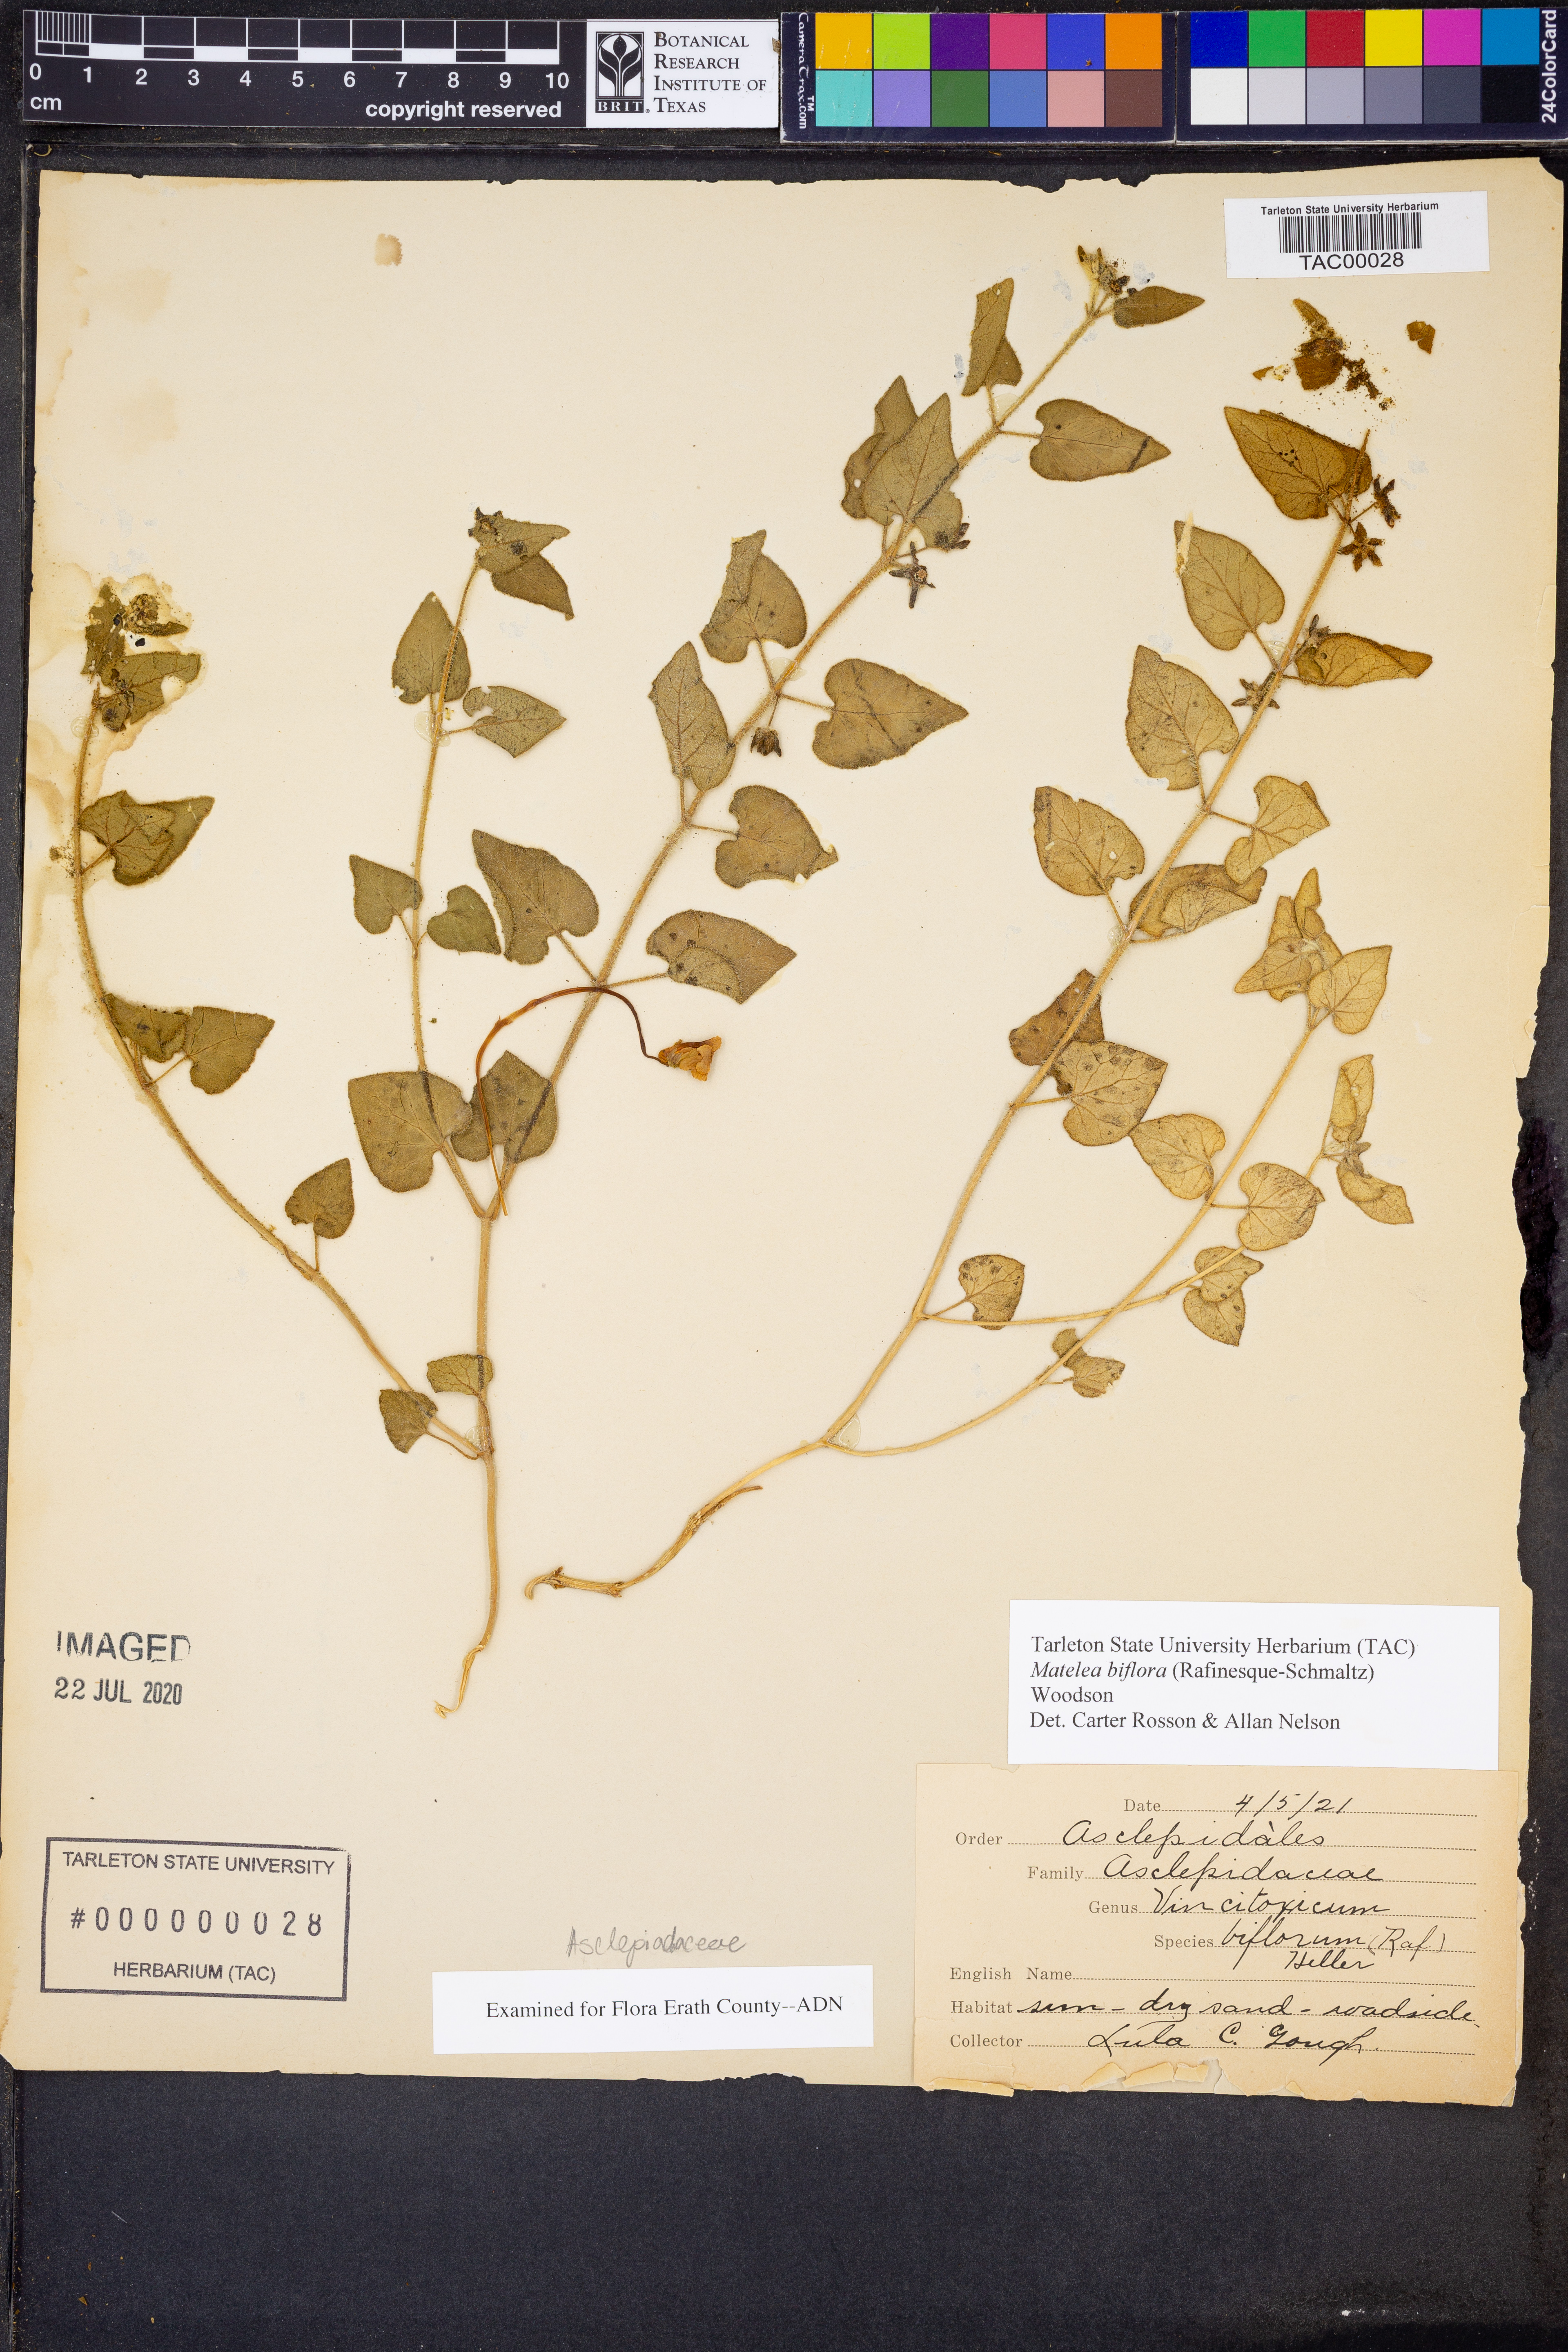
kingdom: Plantae
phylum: Tracheophyta
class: Magnoliopsida
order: Gentianales
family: Apocynaceae
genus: Chthamalia
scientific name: Chthamalia biflora
